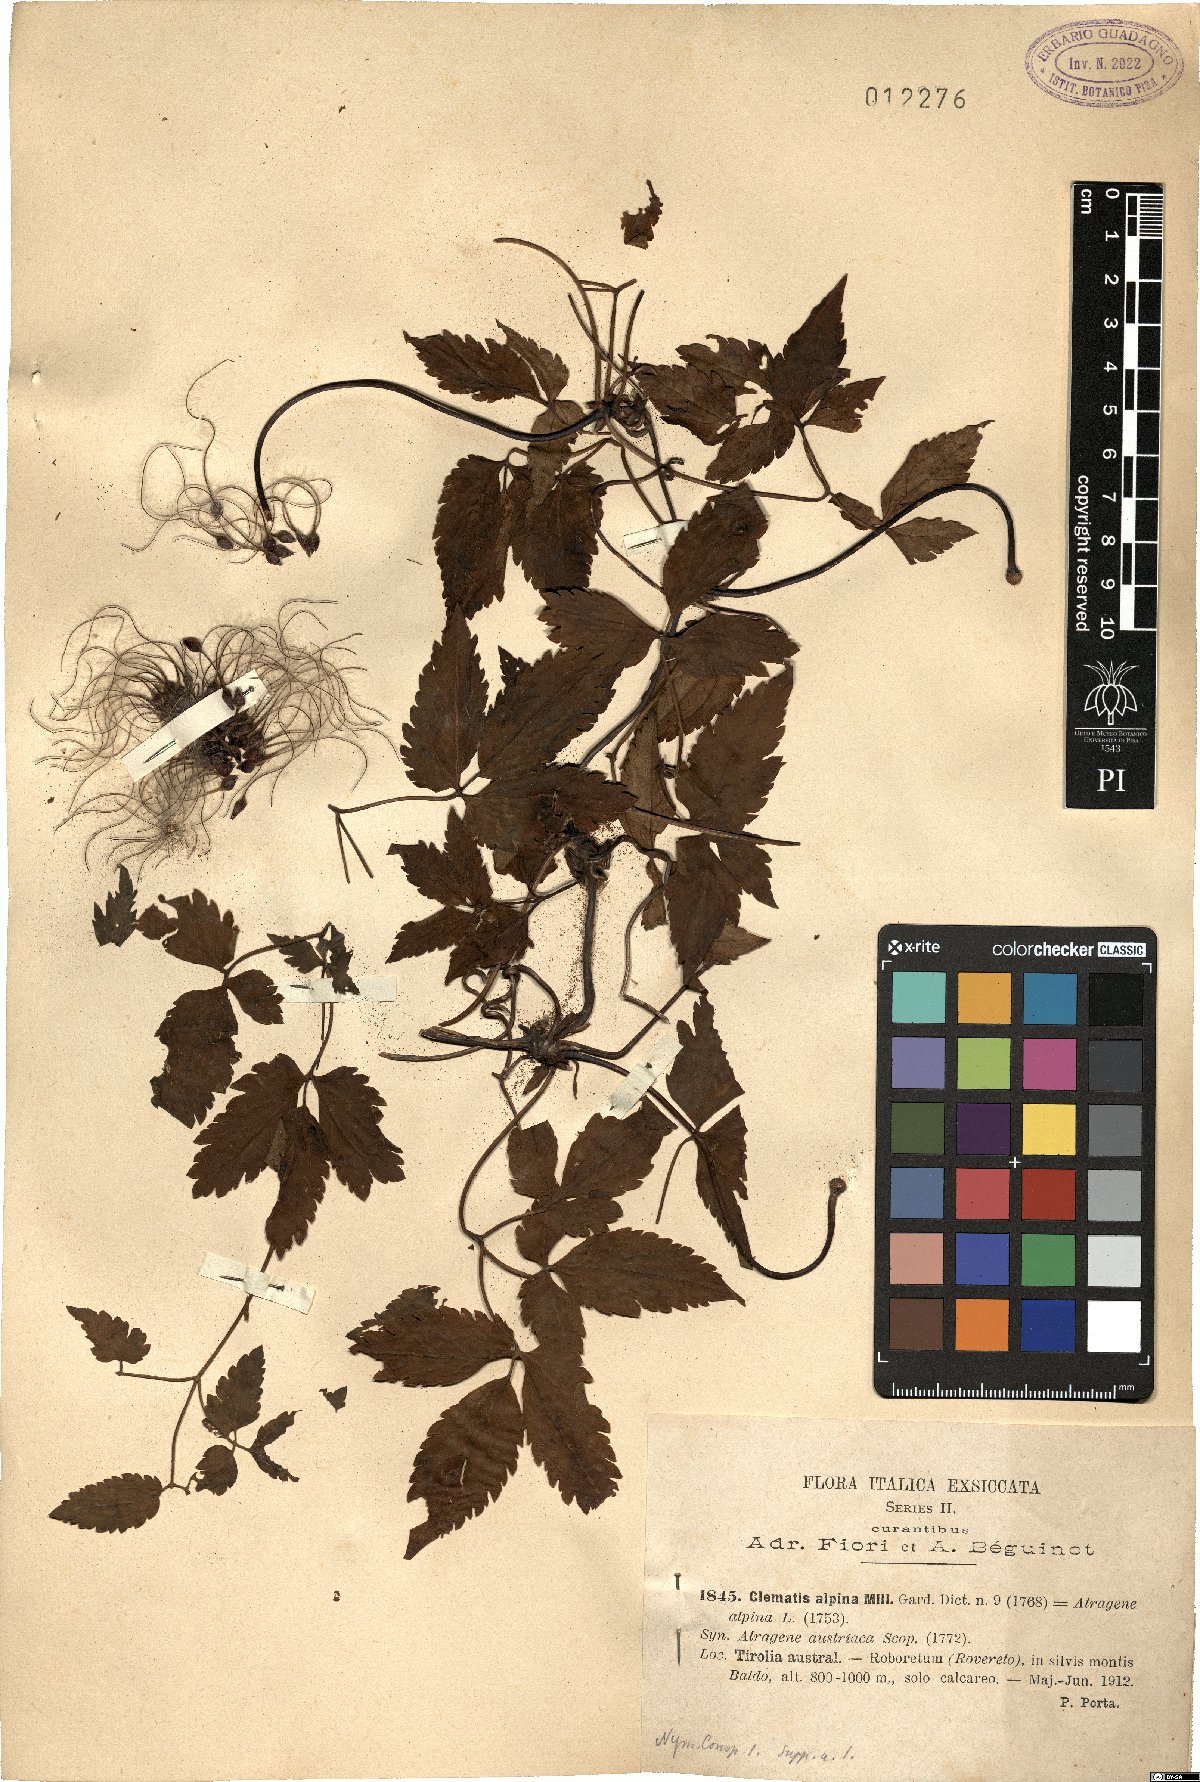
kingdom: Plantae
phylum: Tracheophyta
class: Magnoliopsida
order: Ranunculales
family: Ranunculaceae
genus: Clematis
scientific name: Clematis alpina
